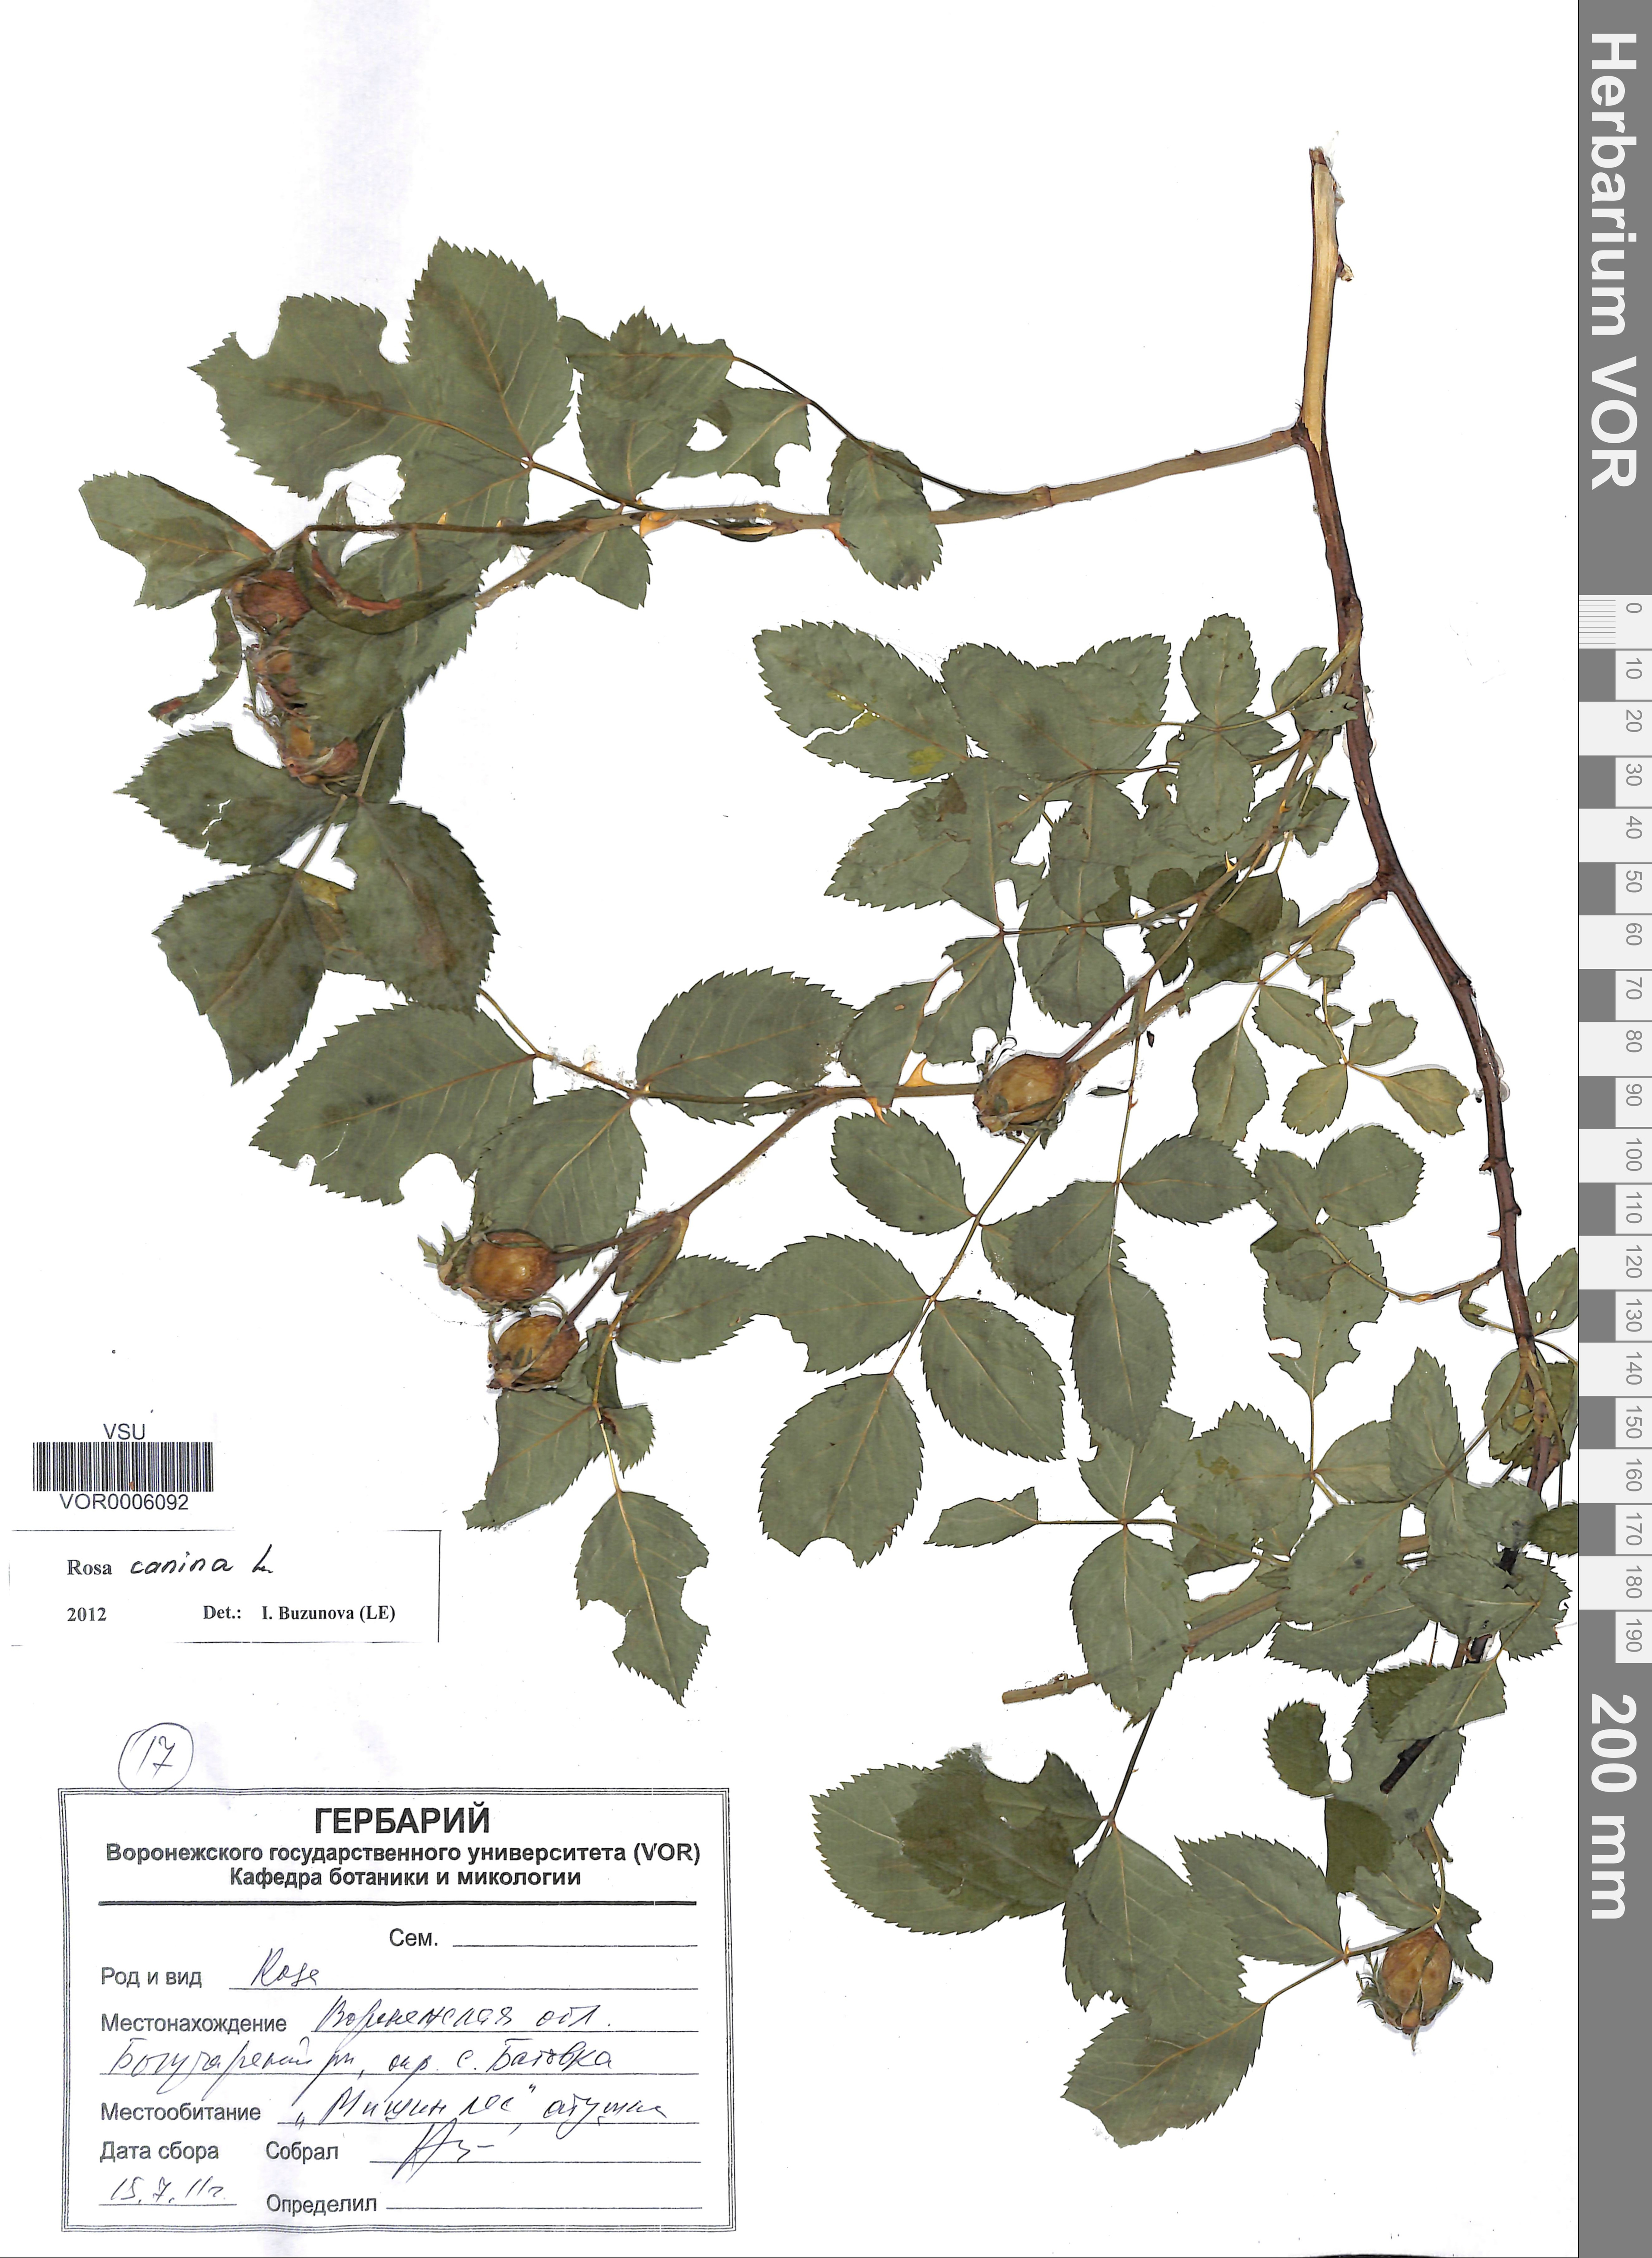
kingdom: Plantae
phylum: Tracheophyta
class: Magnoliopsida
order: Rosales
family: Rosaceae
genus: Rosa
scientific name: Rosa canina
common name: Dog rose
